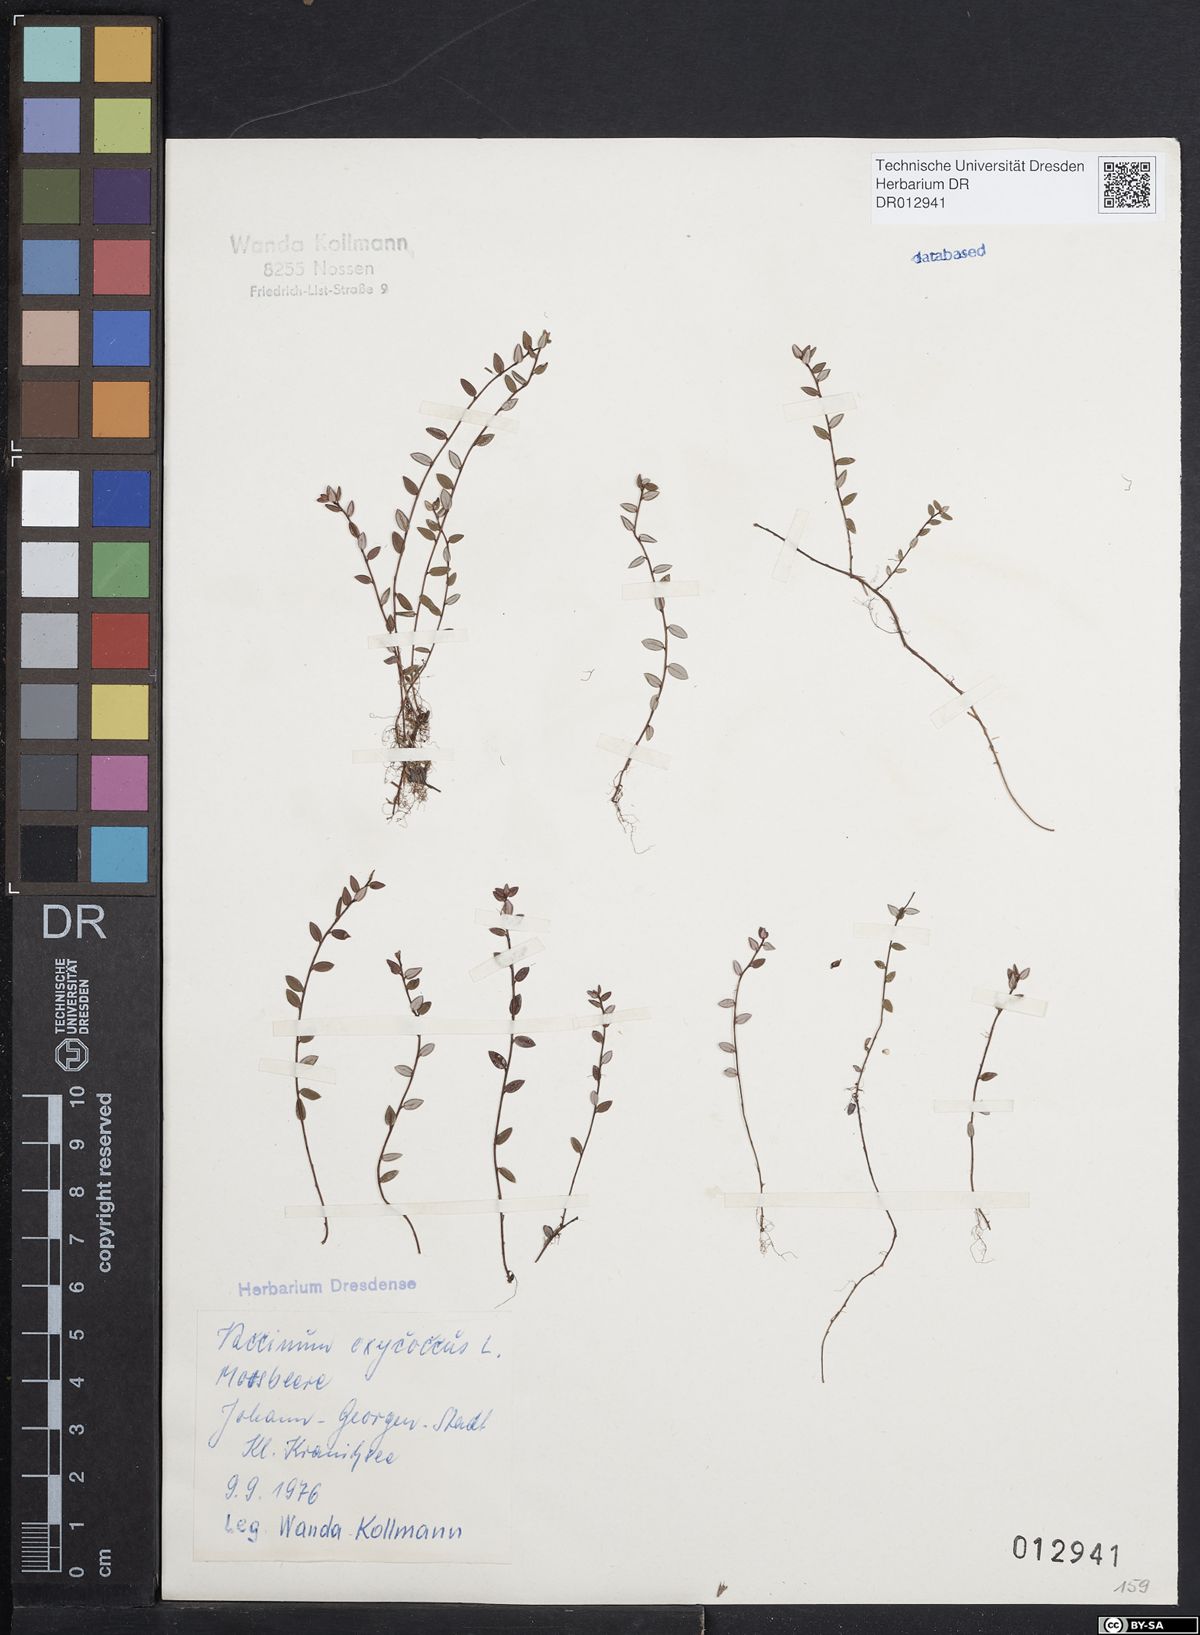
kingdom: Plantae
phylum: Tracheophyta
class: Magnoliopsida
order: Ericales
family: Ericaceae
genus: Vaccinium
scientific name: Vaccinium oxycoccos
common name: Cranberry
